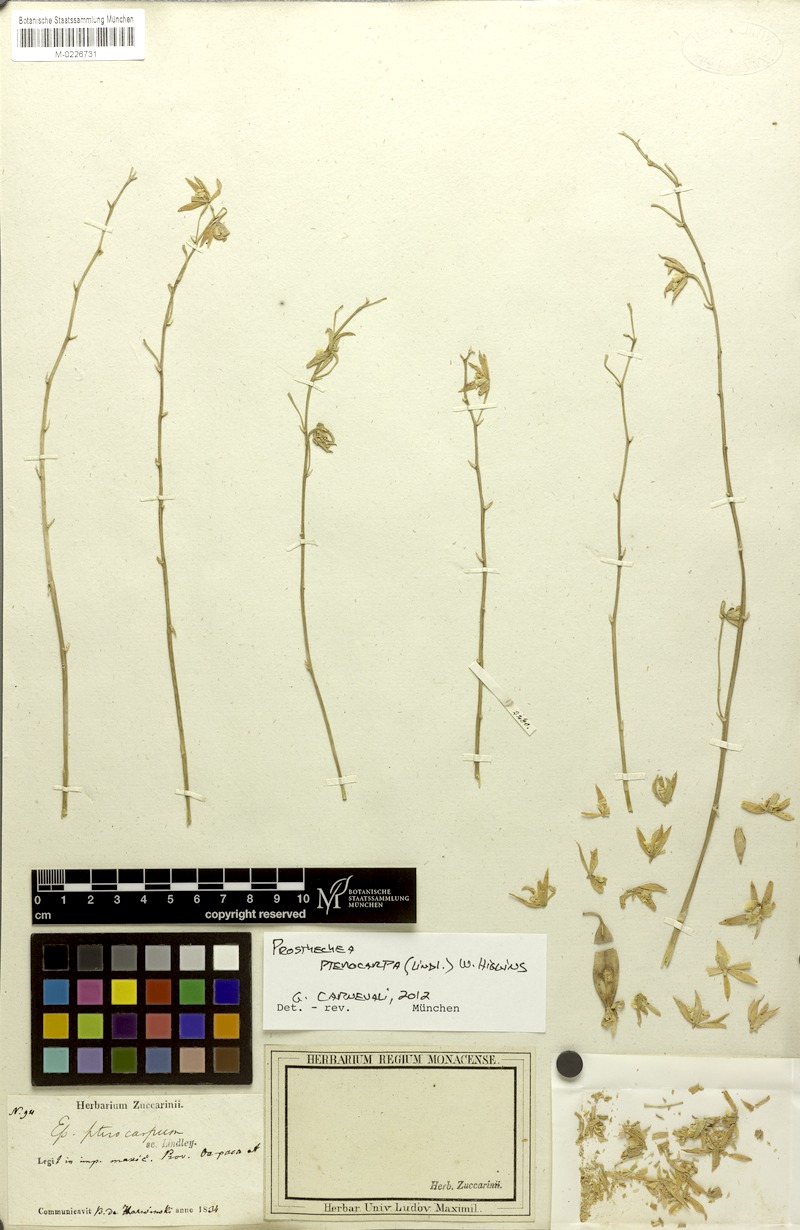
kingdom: Plantae
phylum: Tracheophyta
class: Liliopsida
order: Asparagales
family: Orchidaceae
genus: Prosthechea
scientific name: Prosthechea pterocarpa
